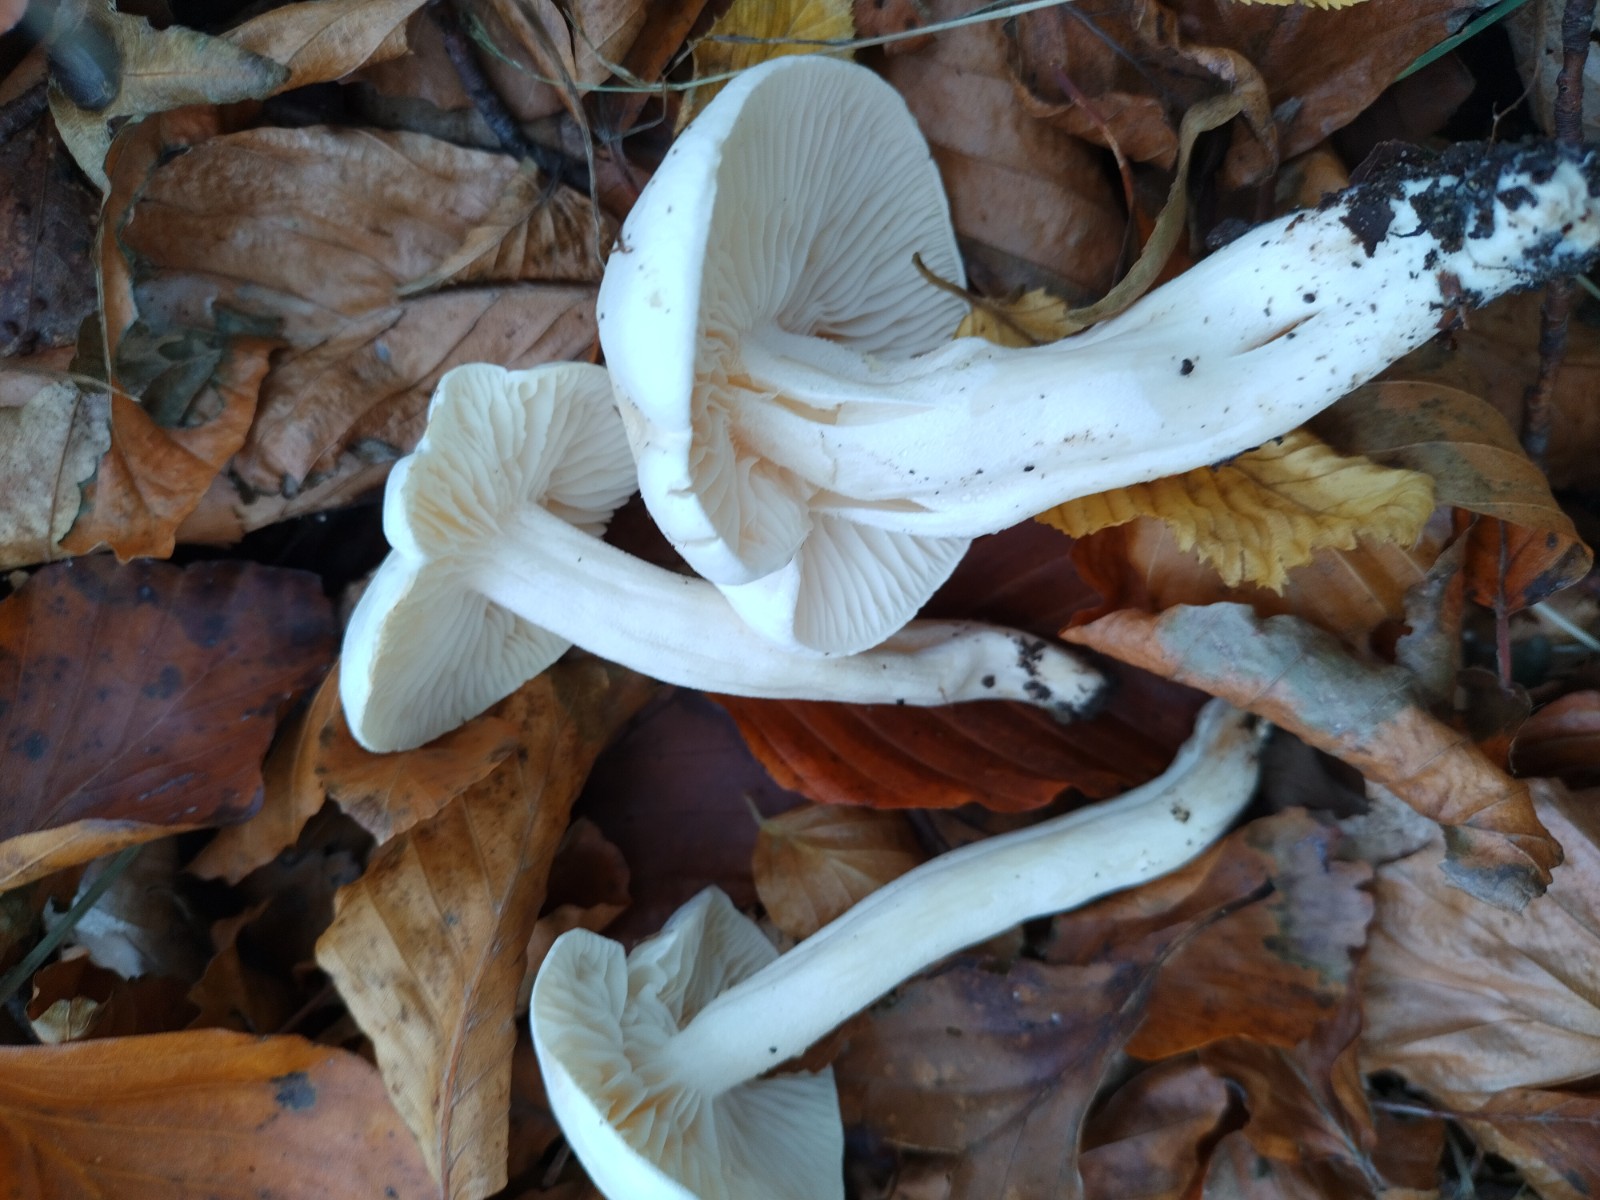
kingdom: Fungi
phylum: Basidiomycota
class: Agaricomycetes
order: Agaricales
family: Hygrophoraceae
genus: Hygrophorus
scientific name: Hygrophorus eburneus
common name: elfenbens-sneglehat
